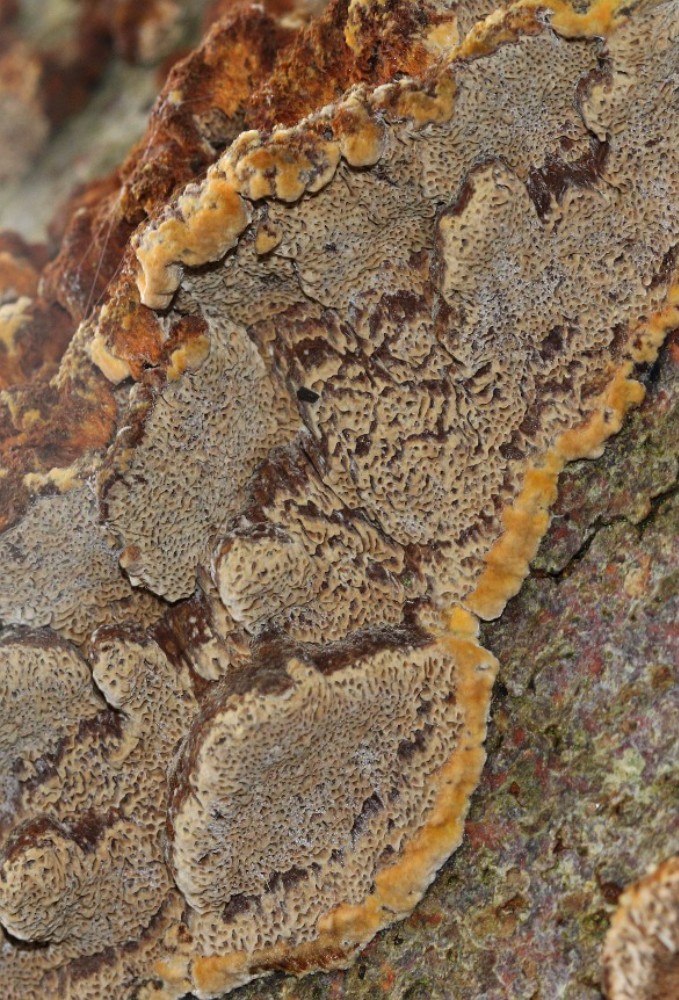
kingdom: Fungi
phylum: Basidiomycota
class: Agaricomycetes
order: Hymenochaetales
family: Hymenochaetaceae
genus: Mensularia
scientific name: Mensularia nodulosa
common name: bøge-spejlporesvamp
